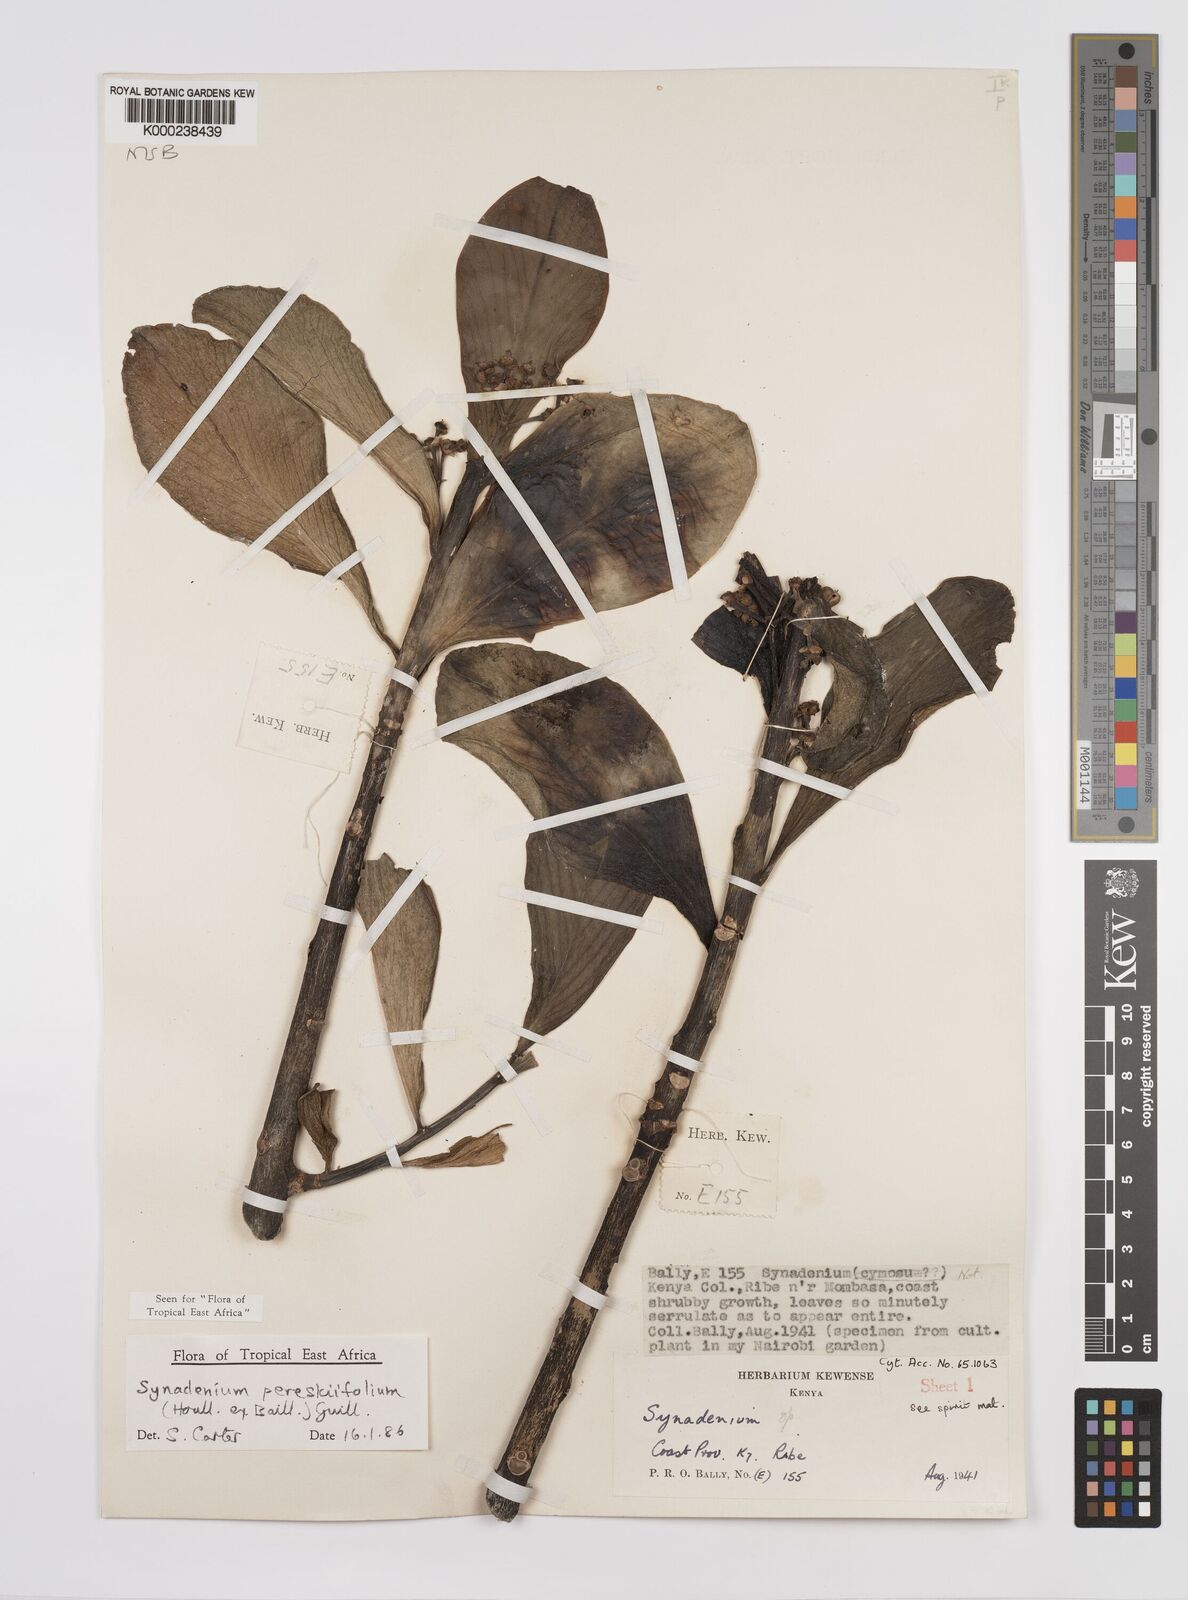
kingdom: Plantae
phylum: Tracheophyta
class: Magnoliopsida
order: Malpighiales
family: Euphorbiaceae
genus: Euphorbia
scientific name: Euphorbia pereskiifolia
